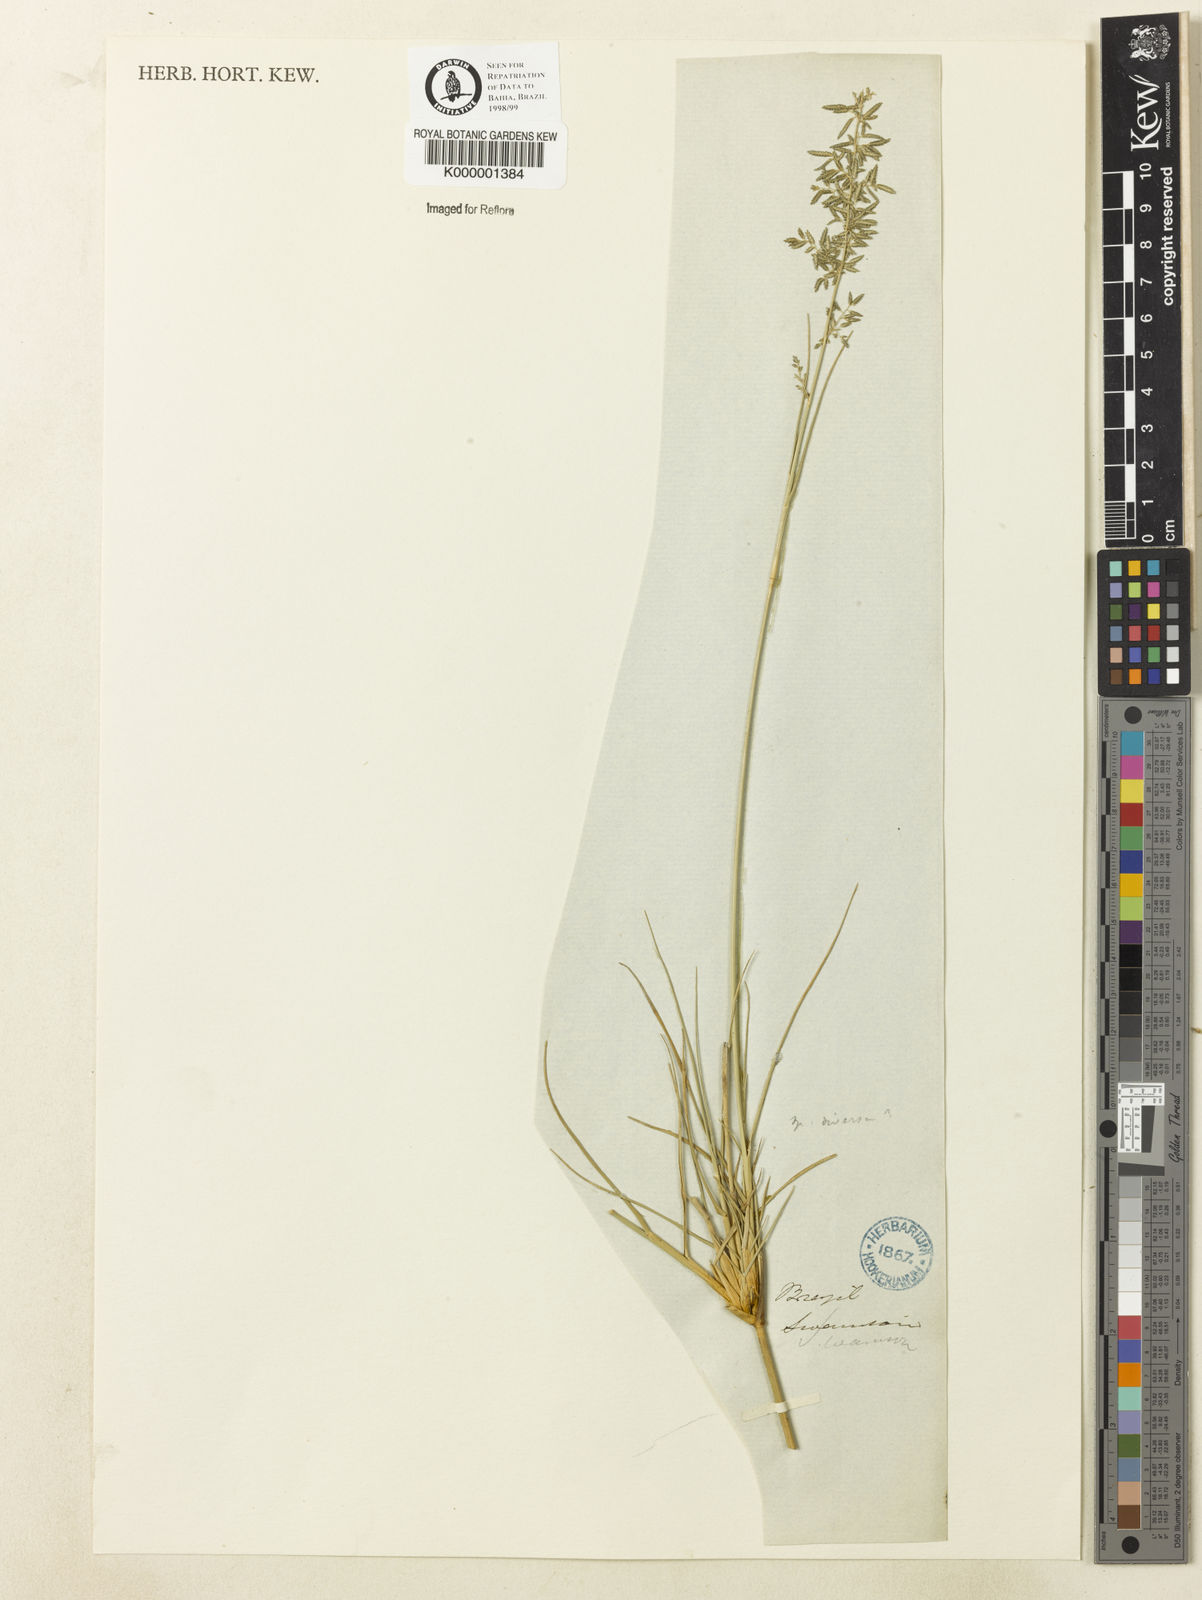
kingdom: Plantae
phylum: Tracheophyta
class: Liliopsida
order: Poales
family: Poaceae
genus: Eragrostis
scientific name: Eragrostis prolifera
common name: Dominican lovegrass
